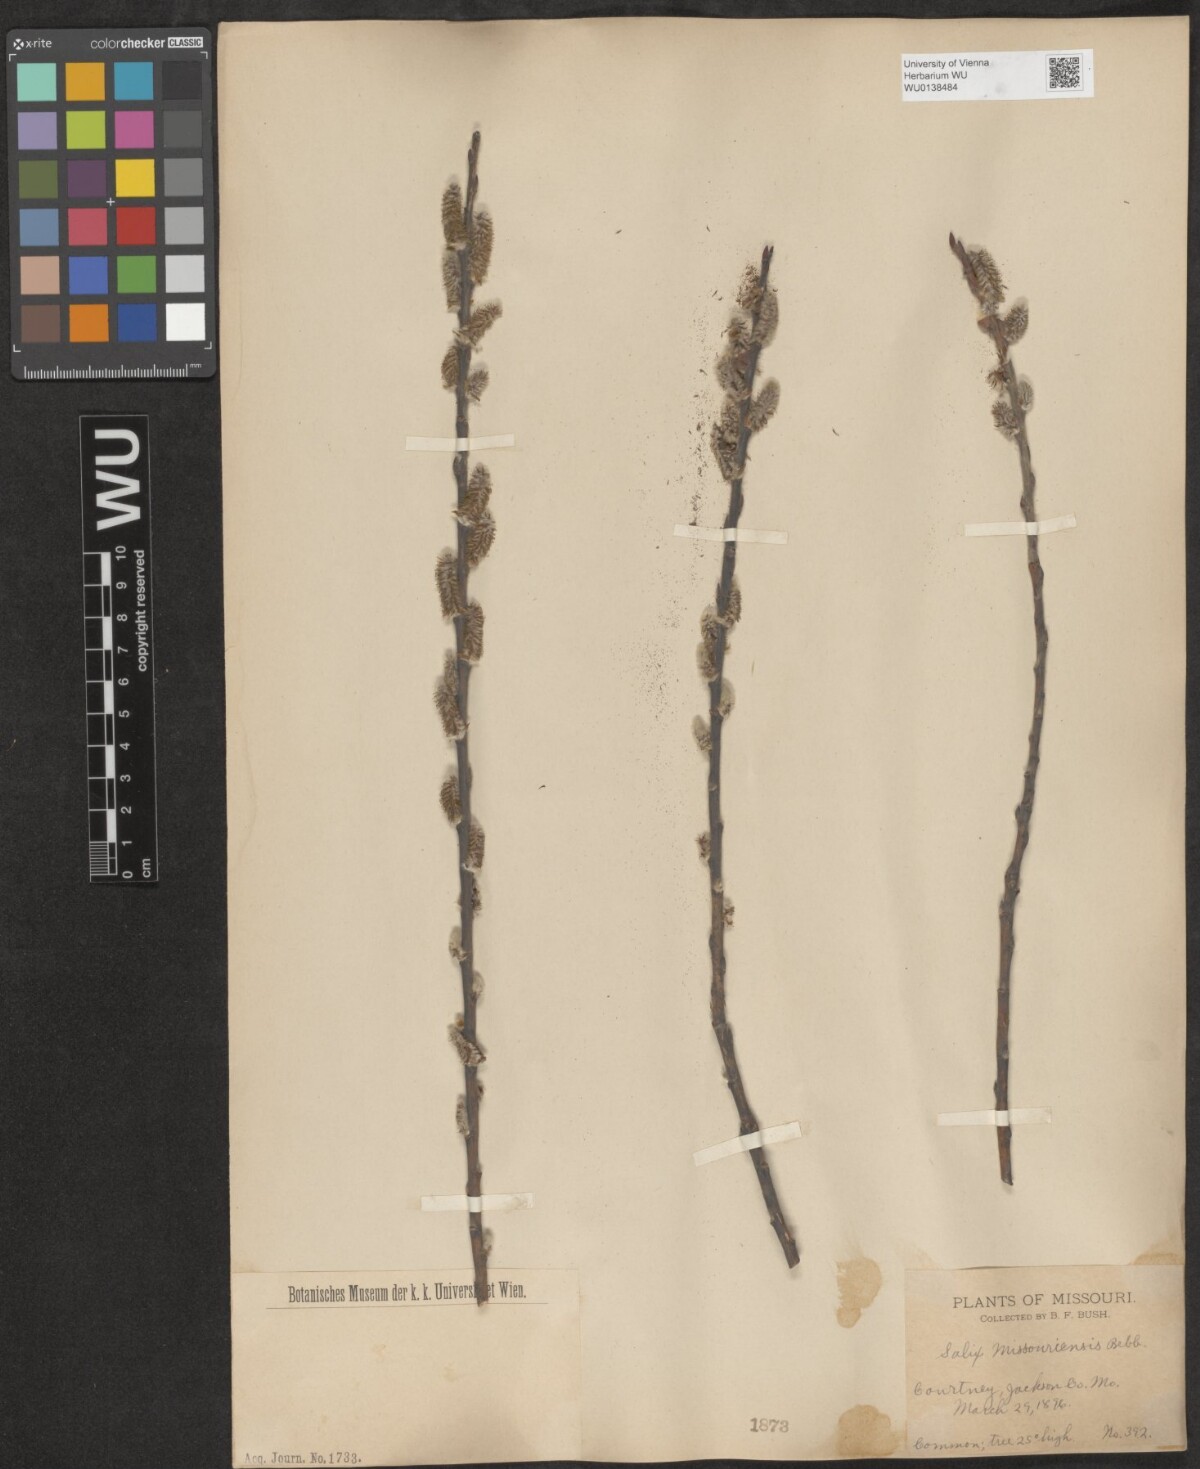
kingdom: Plantae
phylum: Tracheophyta
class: Magnoliopsida
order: Malpighiales
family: Salicaceae
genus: Salix
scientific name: Salix eriocephala
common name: Heart-leaved willow
